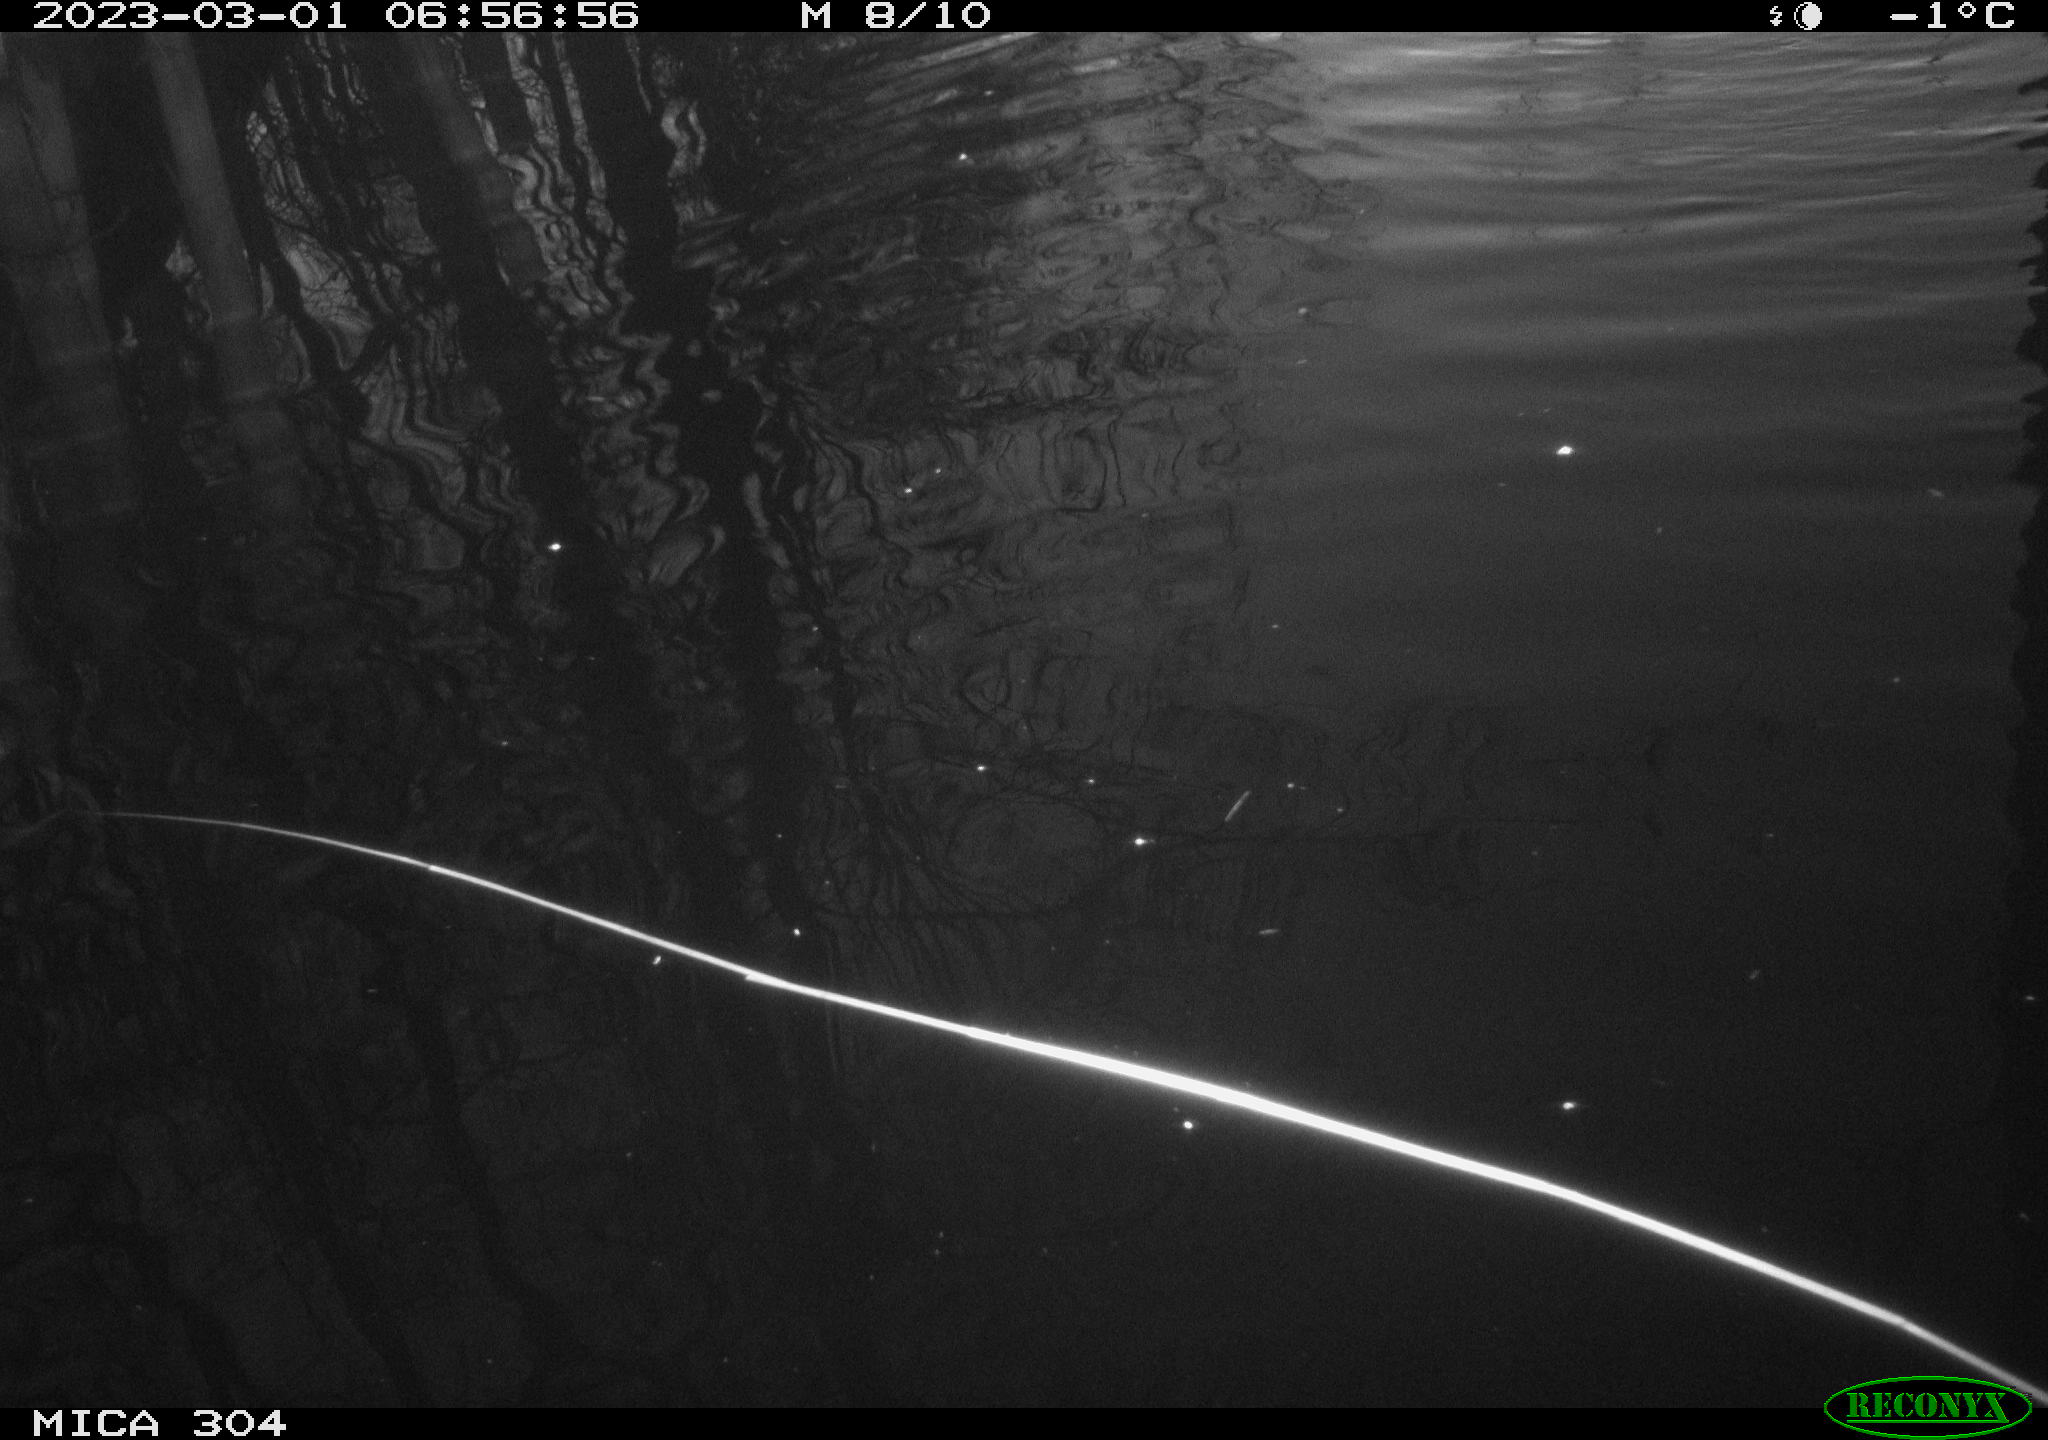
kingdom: Animalia
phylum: Chordata
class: Aves
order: Anseriformes
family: Anatidae
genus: Anas
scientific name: Anas
